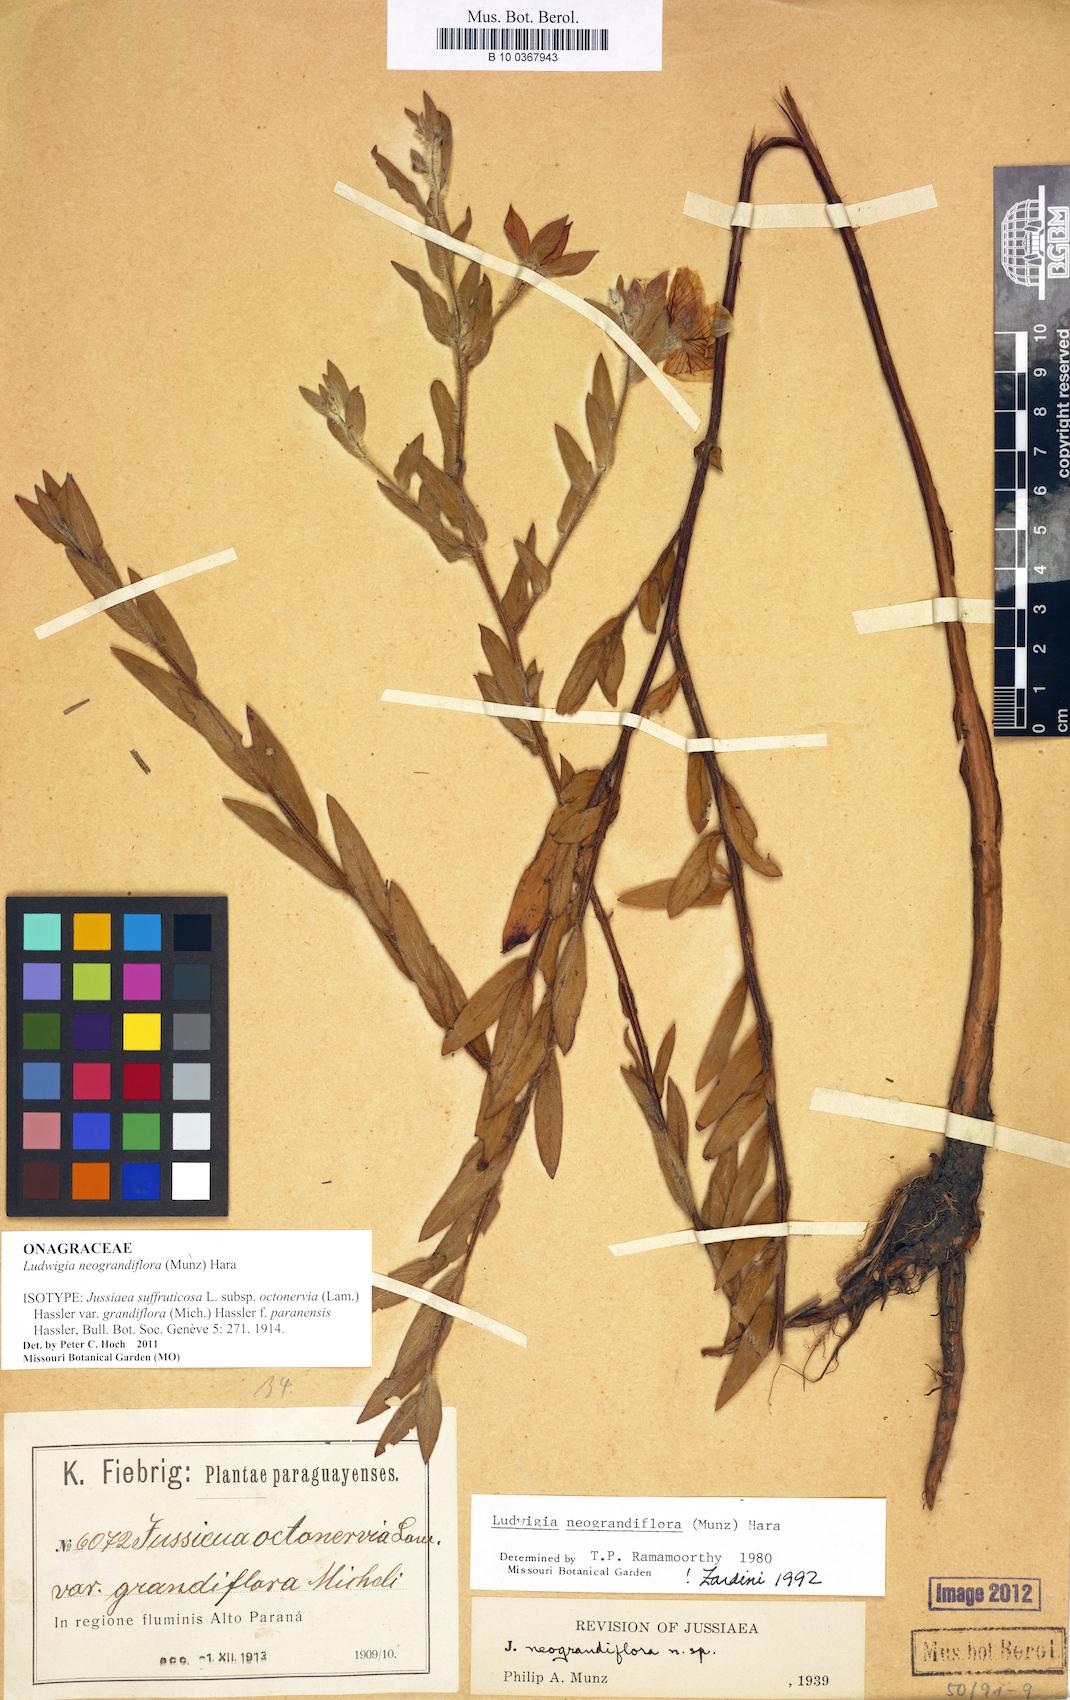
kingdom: Plantae
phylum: Tracheophyta
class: Magnoliopsida
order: Myrtales
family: Onagraceae
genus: Ludwigia
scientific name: Ludwigia neograndiflora
